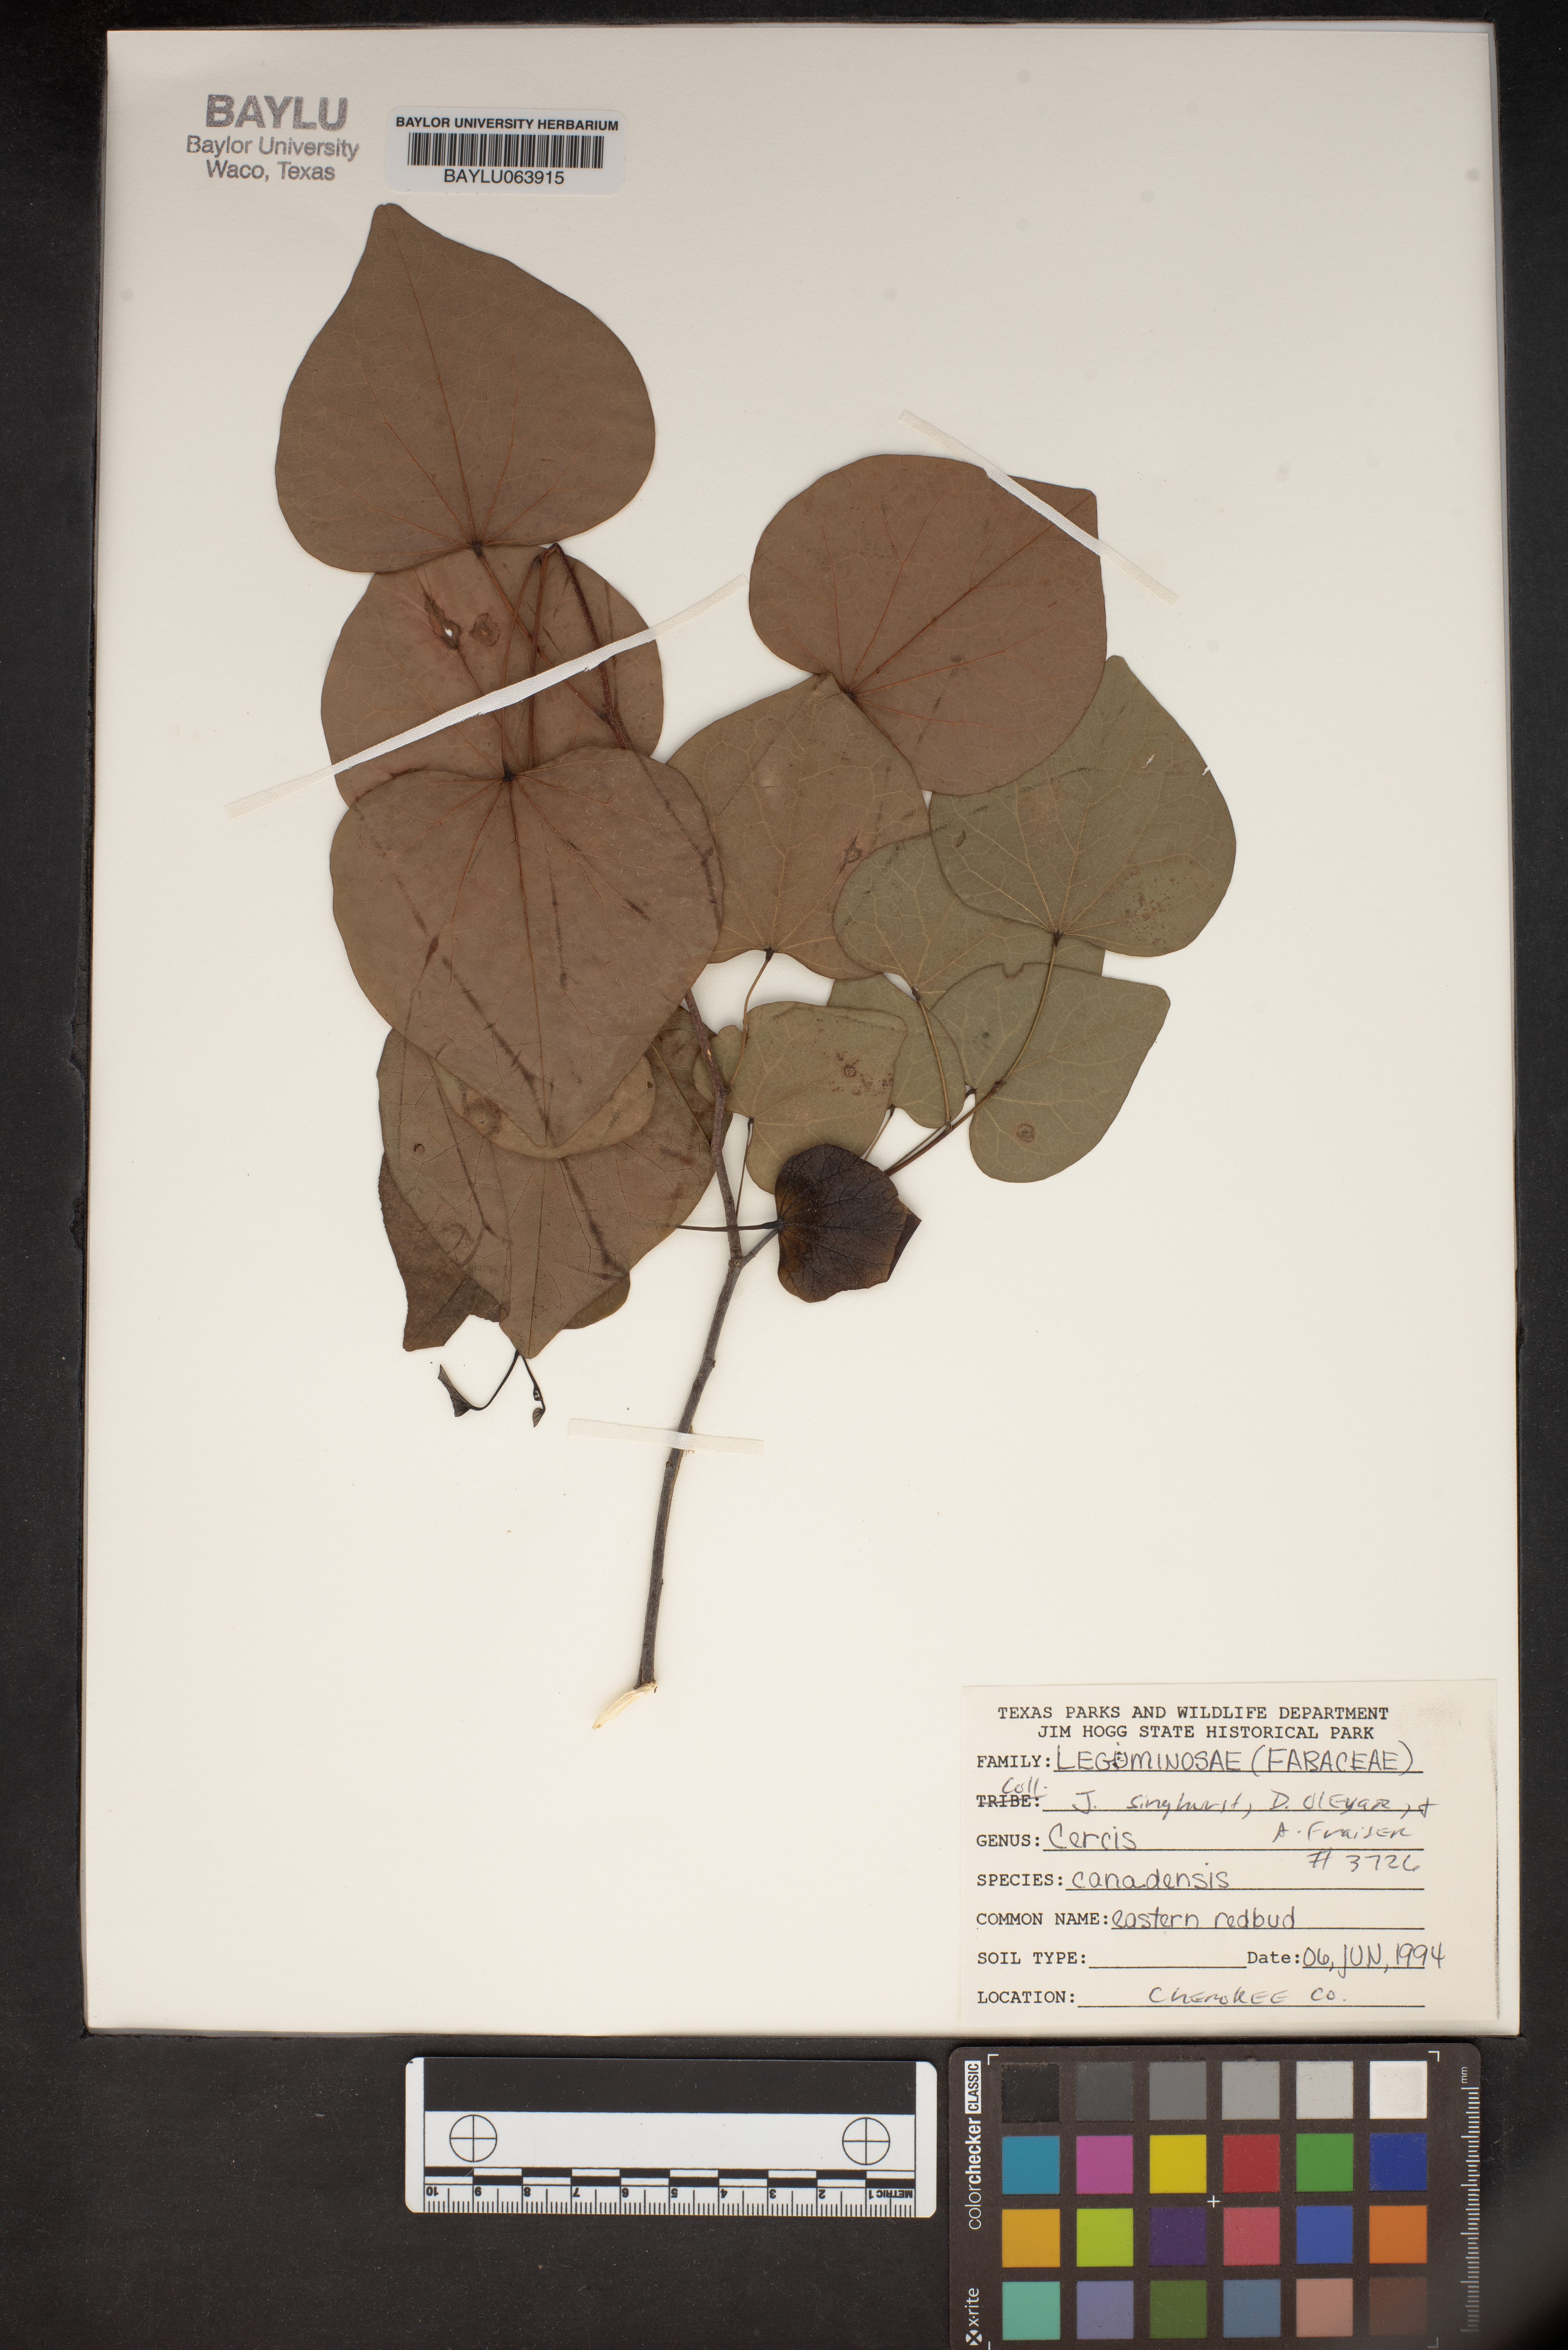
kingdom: Plantae
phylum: Tracheophyta
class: Magnoliopsida
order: Fabales
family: Fabaceae
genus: Cercis
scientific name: Cercis canadensis
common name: Eastern redbud
